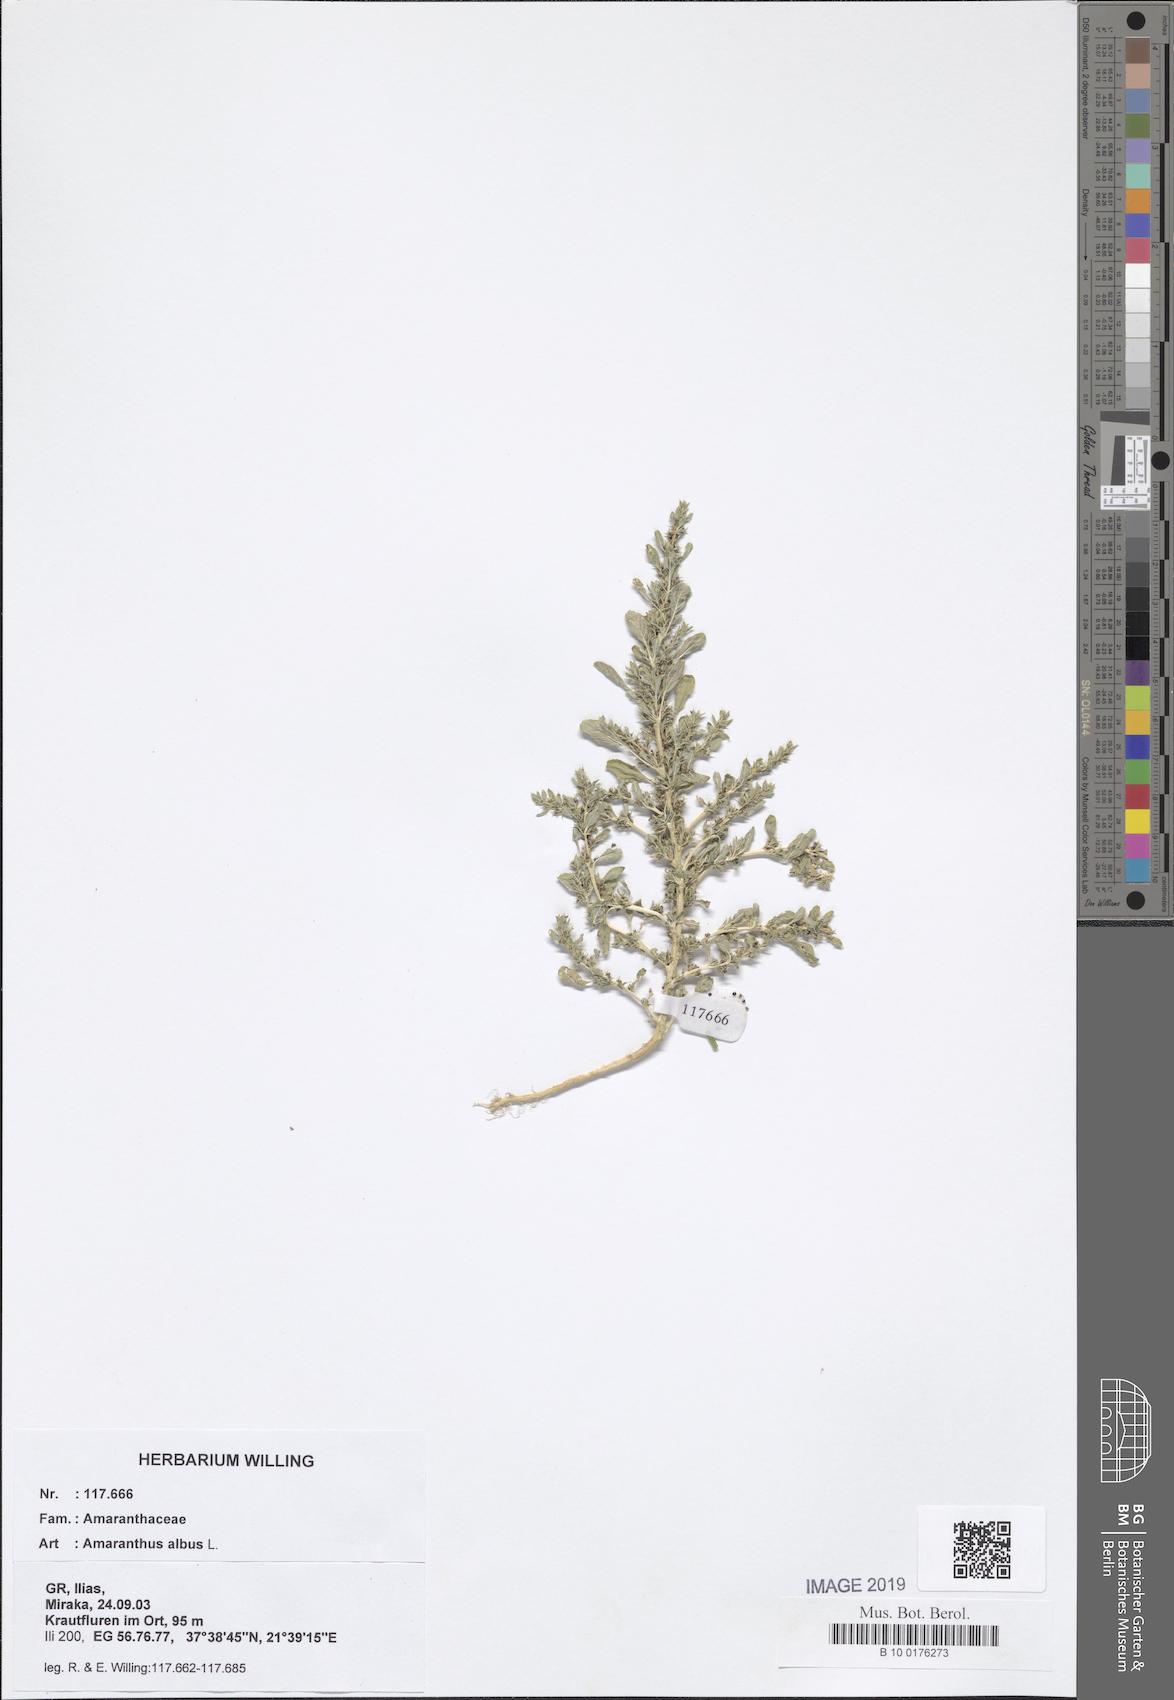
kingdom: Plantae
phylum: Tracheophyta
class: Magnoliopsida
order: Caryophyllales
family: Amaranthaceae
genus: Amaranthus
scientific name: Amaranthus albus
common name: White pigweed
